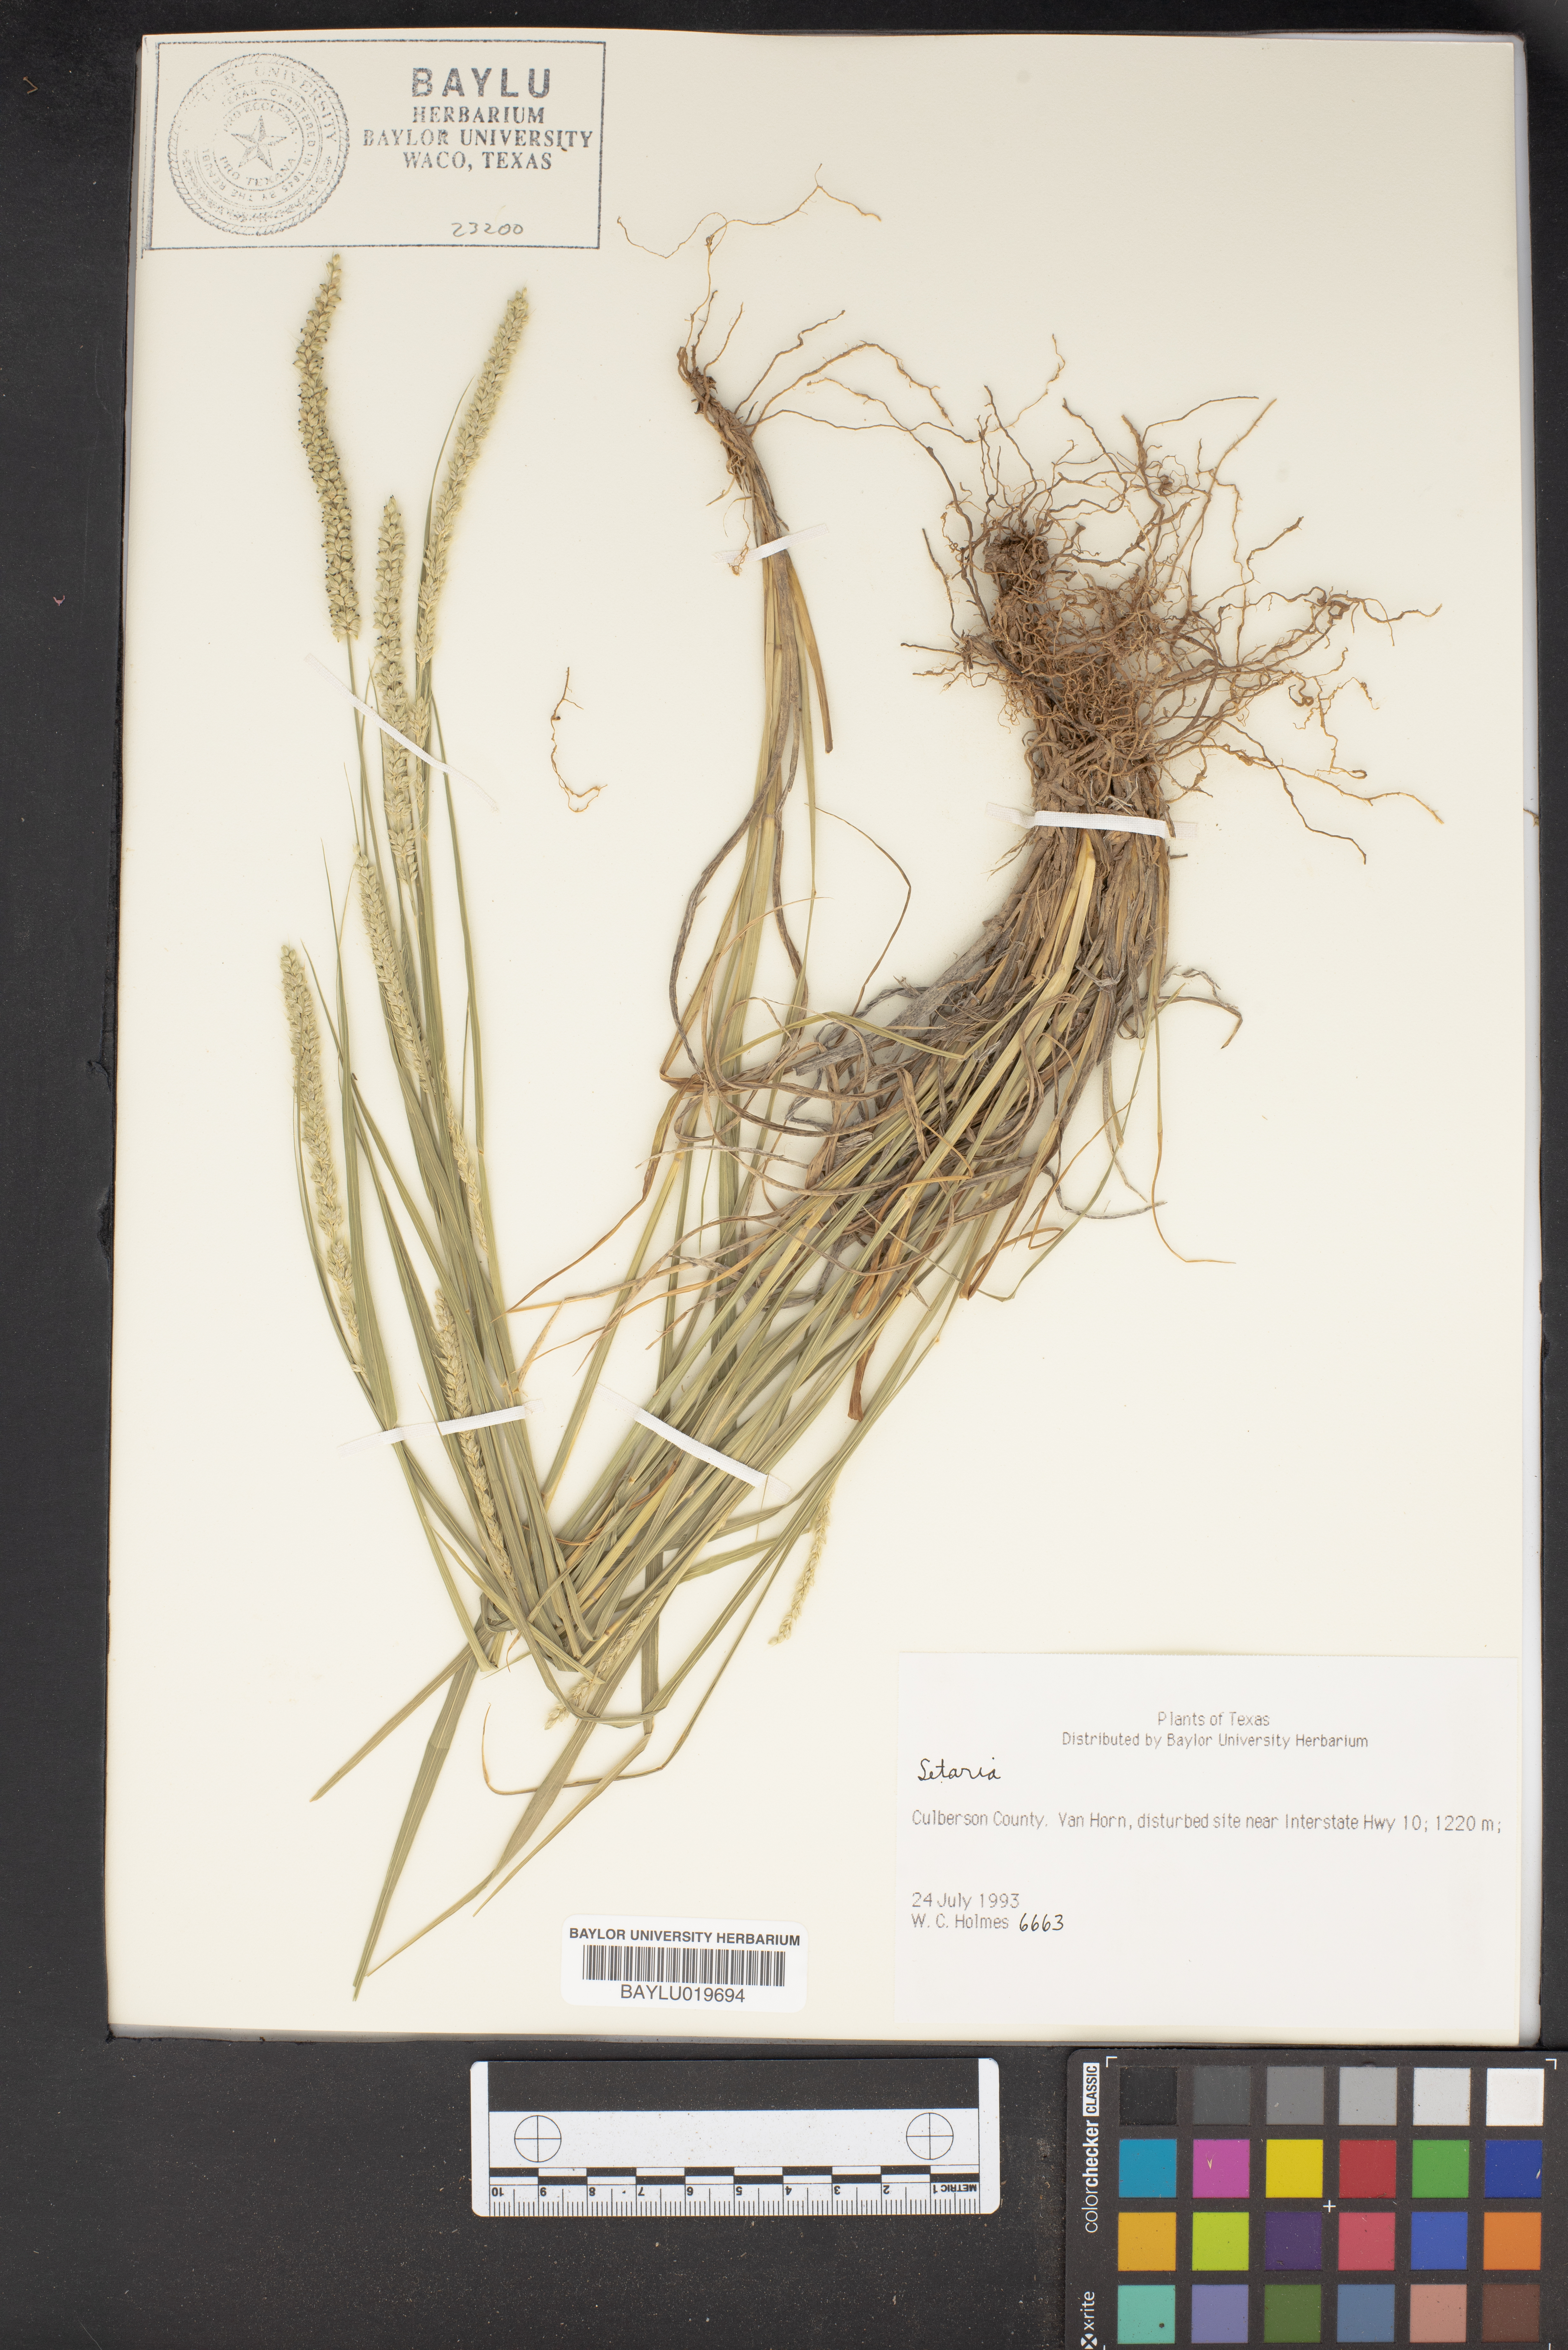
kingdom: Plantae
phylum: Tracheophyta
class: Liliopsida
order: Poales
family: Poaceae
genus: Setaria
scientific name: Setaria
